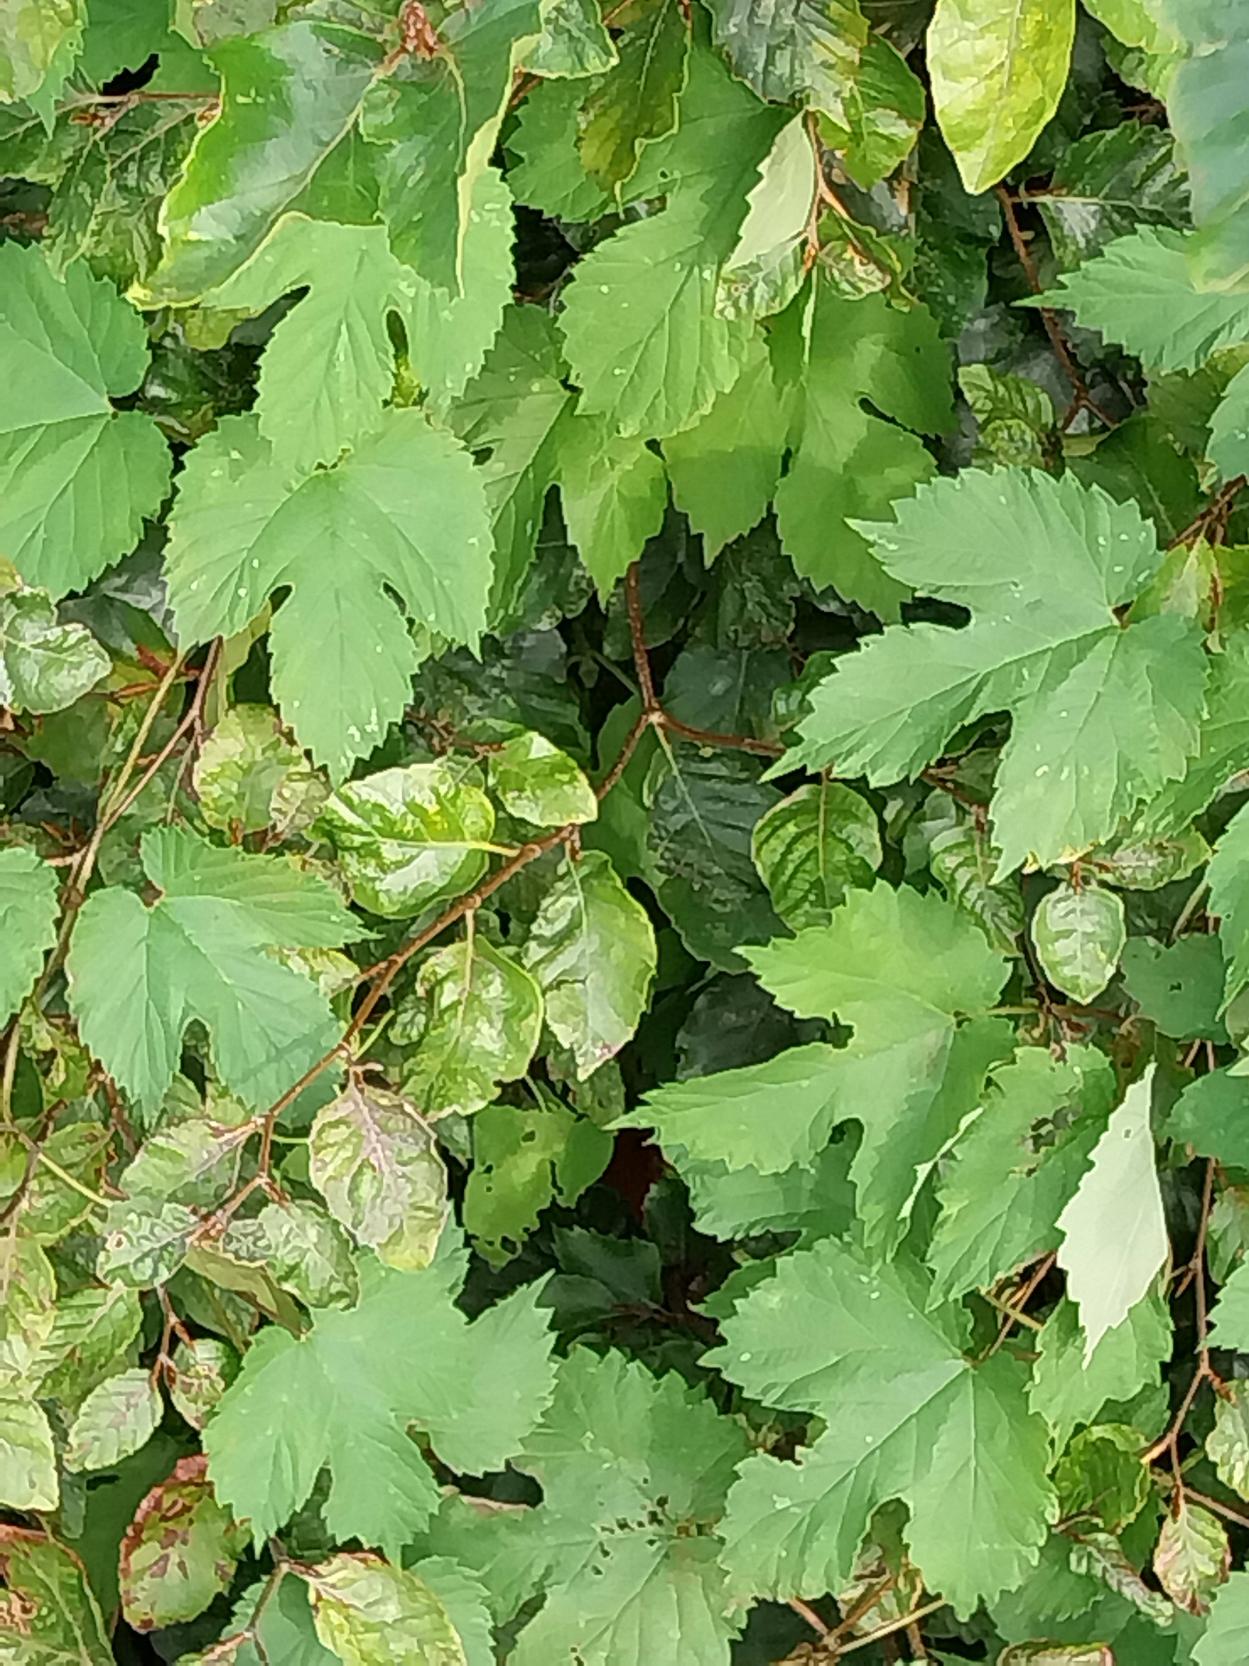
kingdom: Plantae
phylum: Tracheophyta
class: Magnoliopsida
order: Rosales
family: Cannabaceae
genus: Humulus
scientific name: Humulus lupulus
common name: Humle
